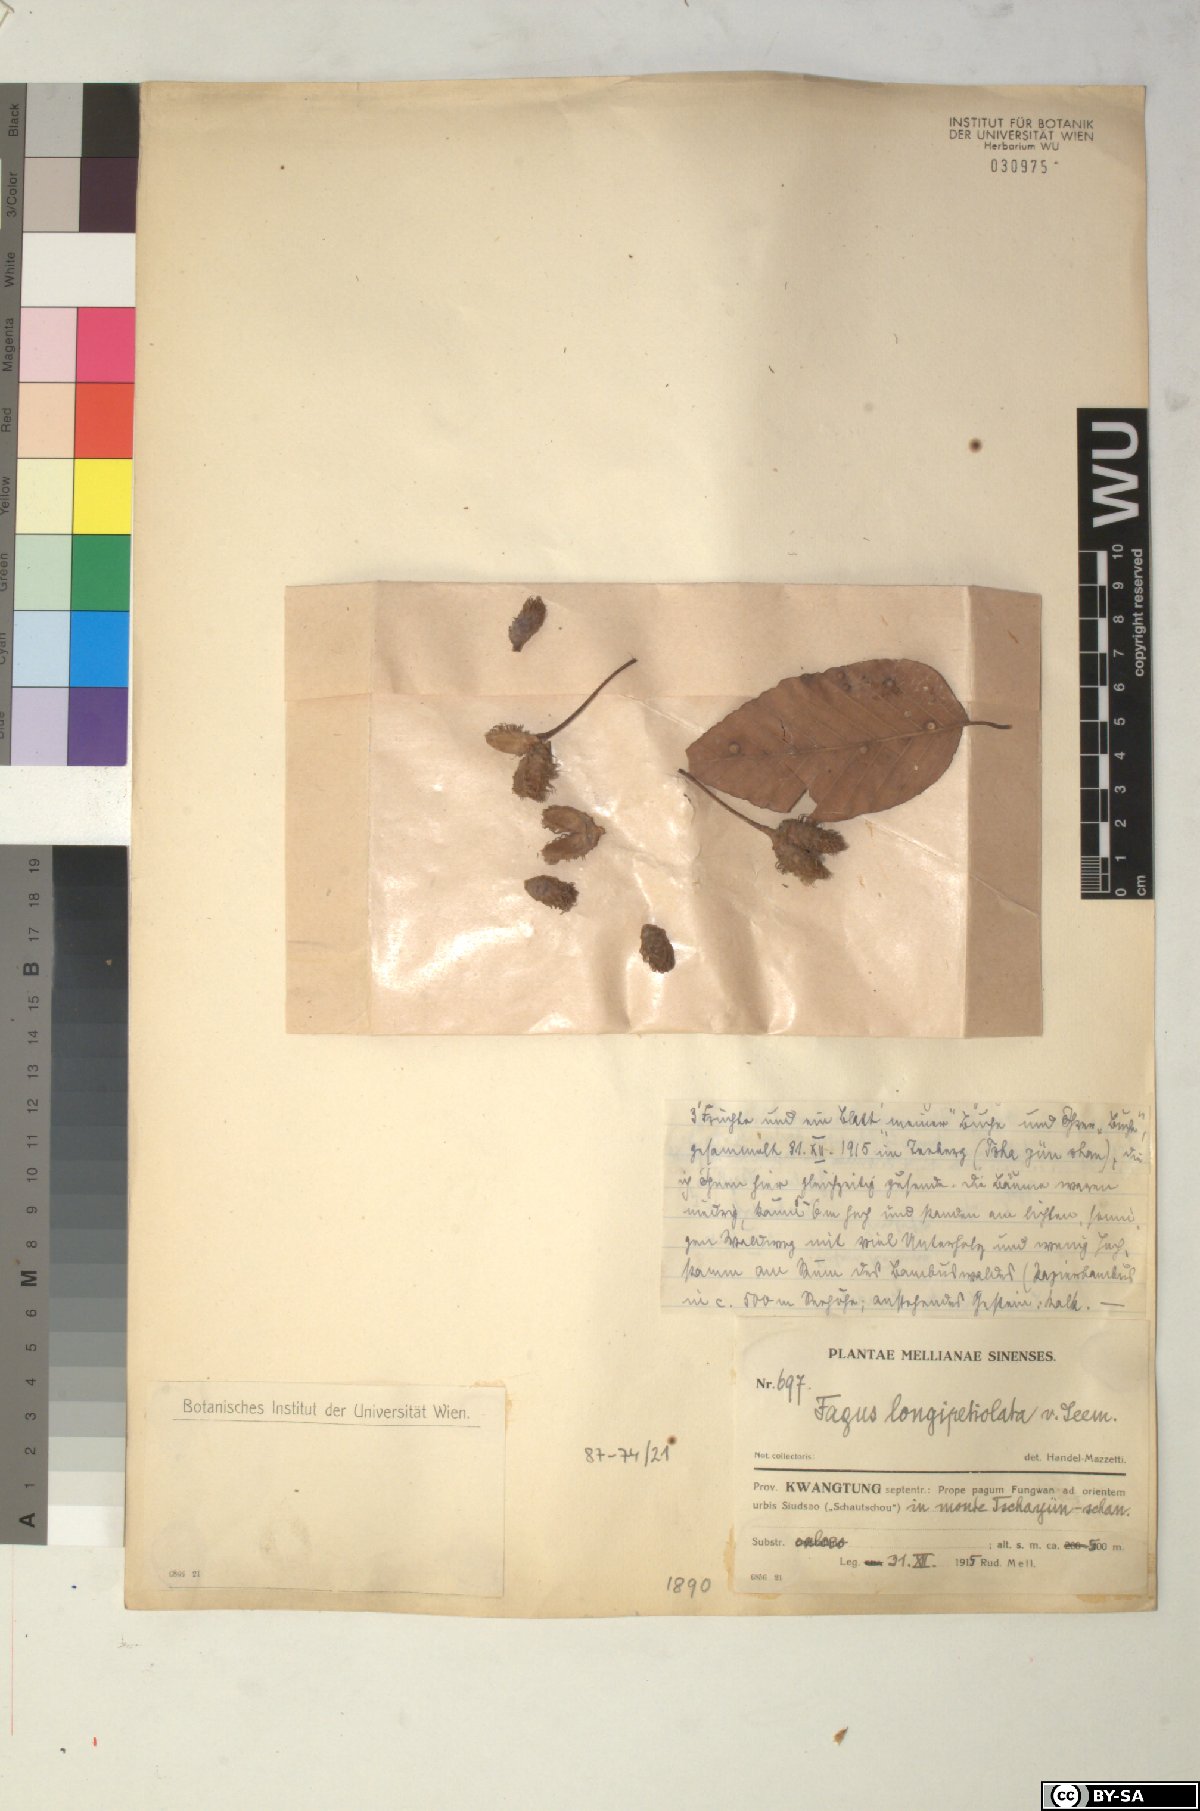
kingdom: Plantae
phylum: Tracheophyta
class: Magnoliopsida
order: Fagales
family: Fagaceae
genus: Fagus
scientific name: Fagus sinensis
